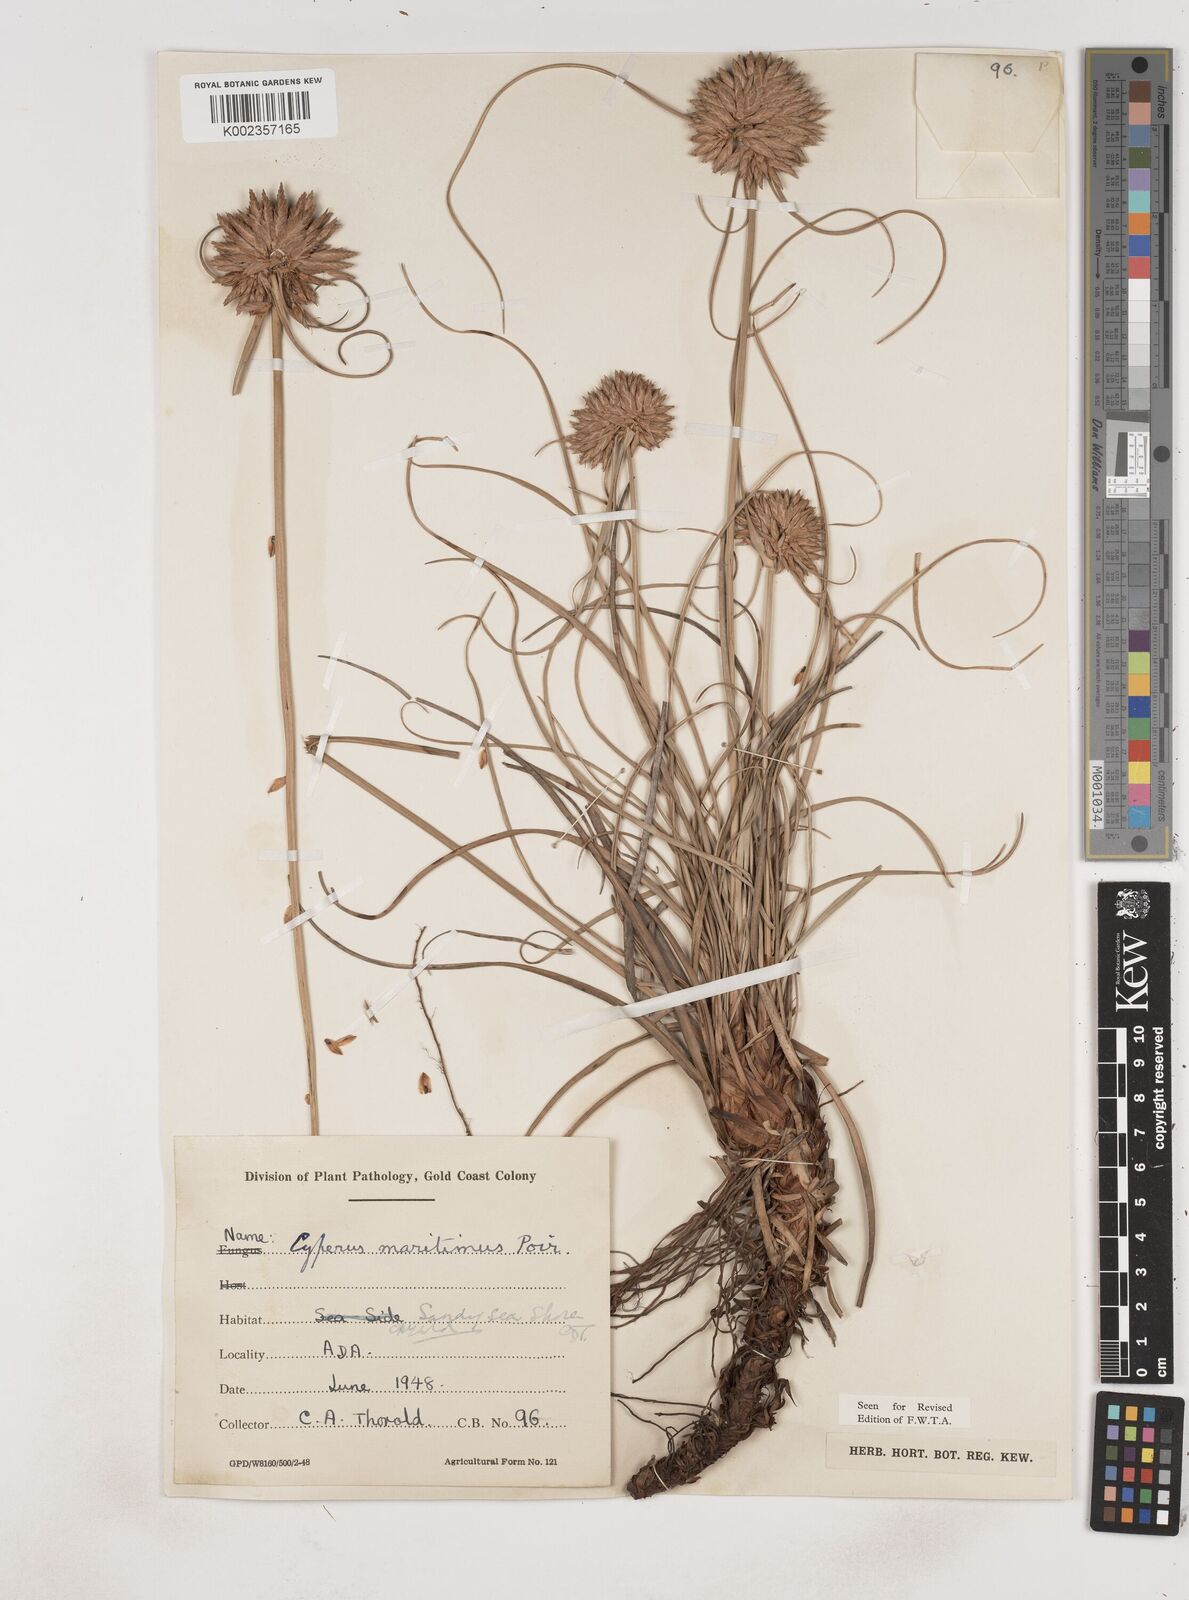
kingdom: Plantae
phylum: Tracheophyta
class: Liliopsida
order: Poales
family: Cyperaceae
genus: Cyperus
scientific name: Cyperus crassipes
